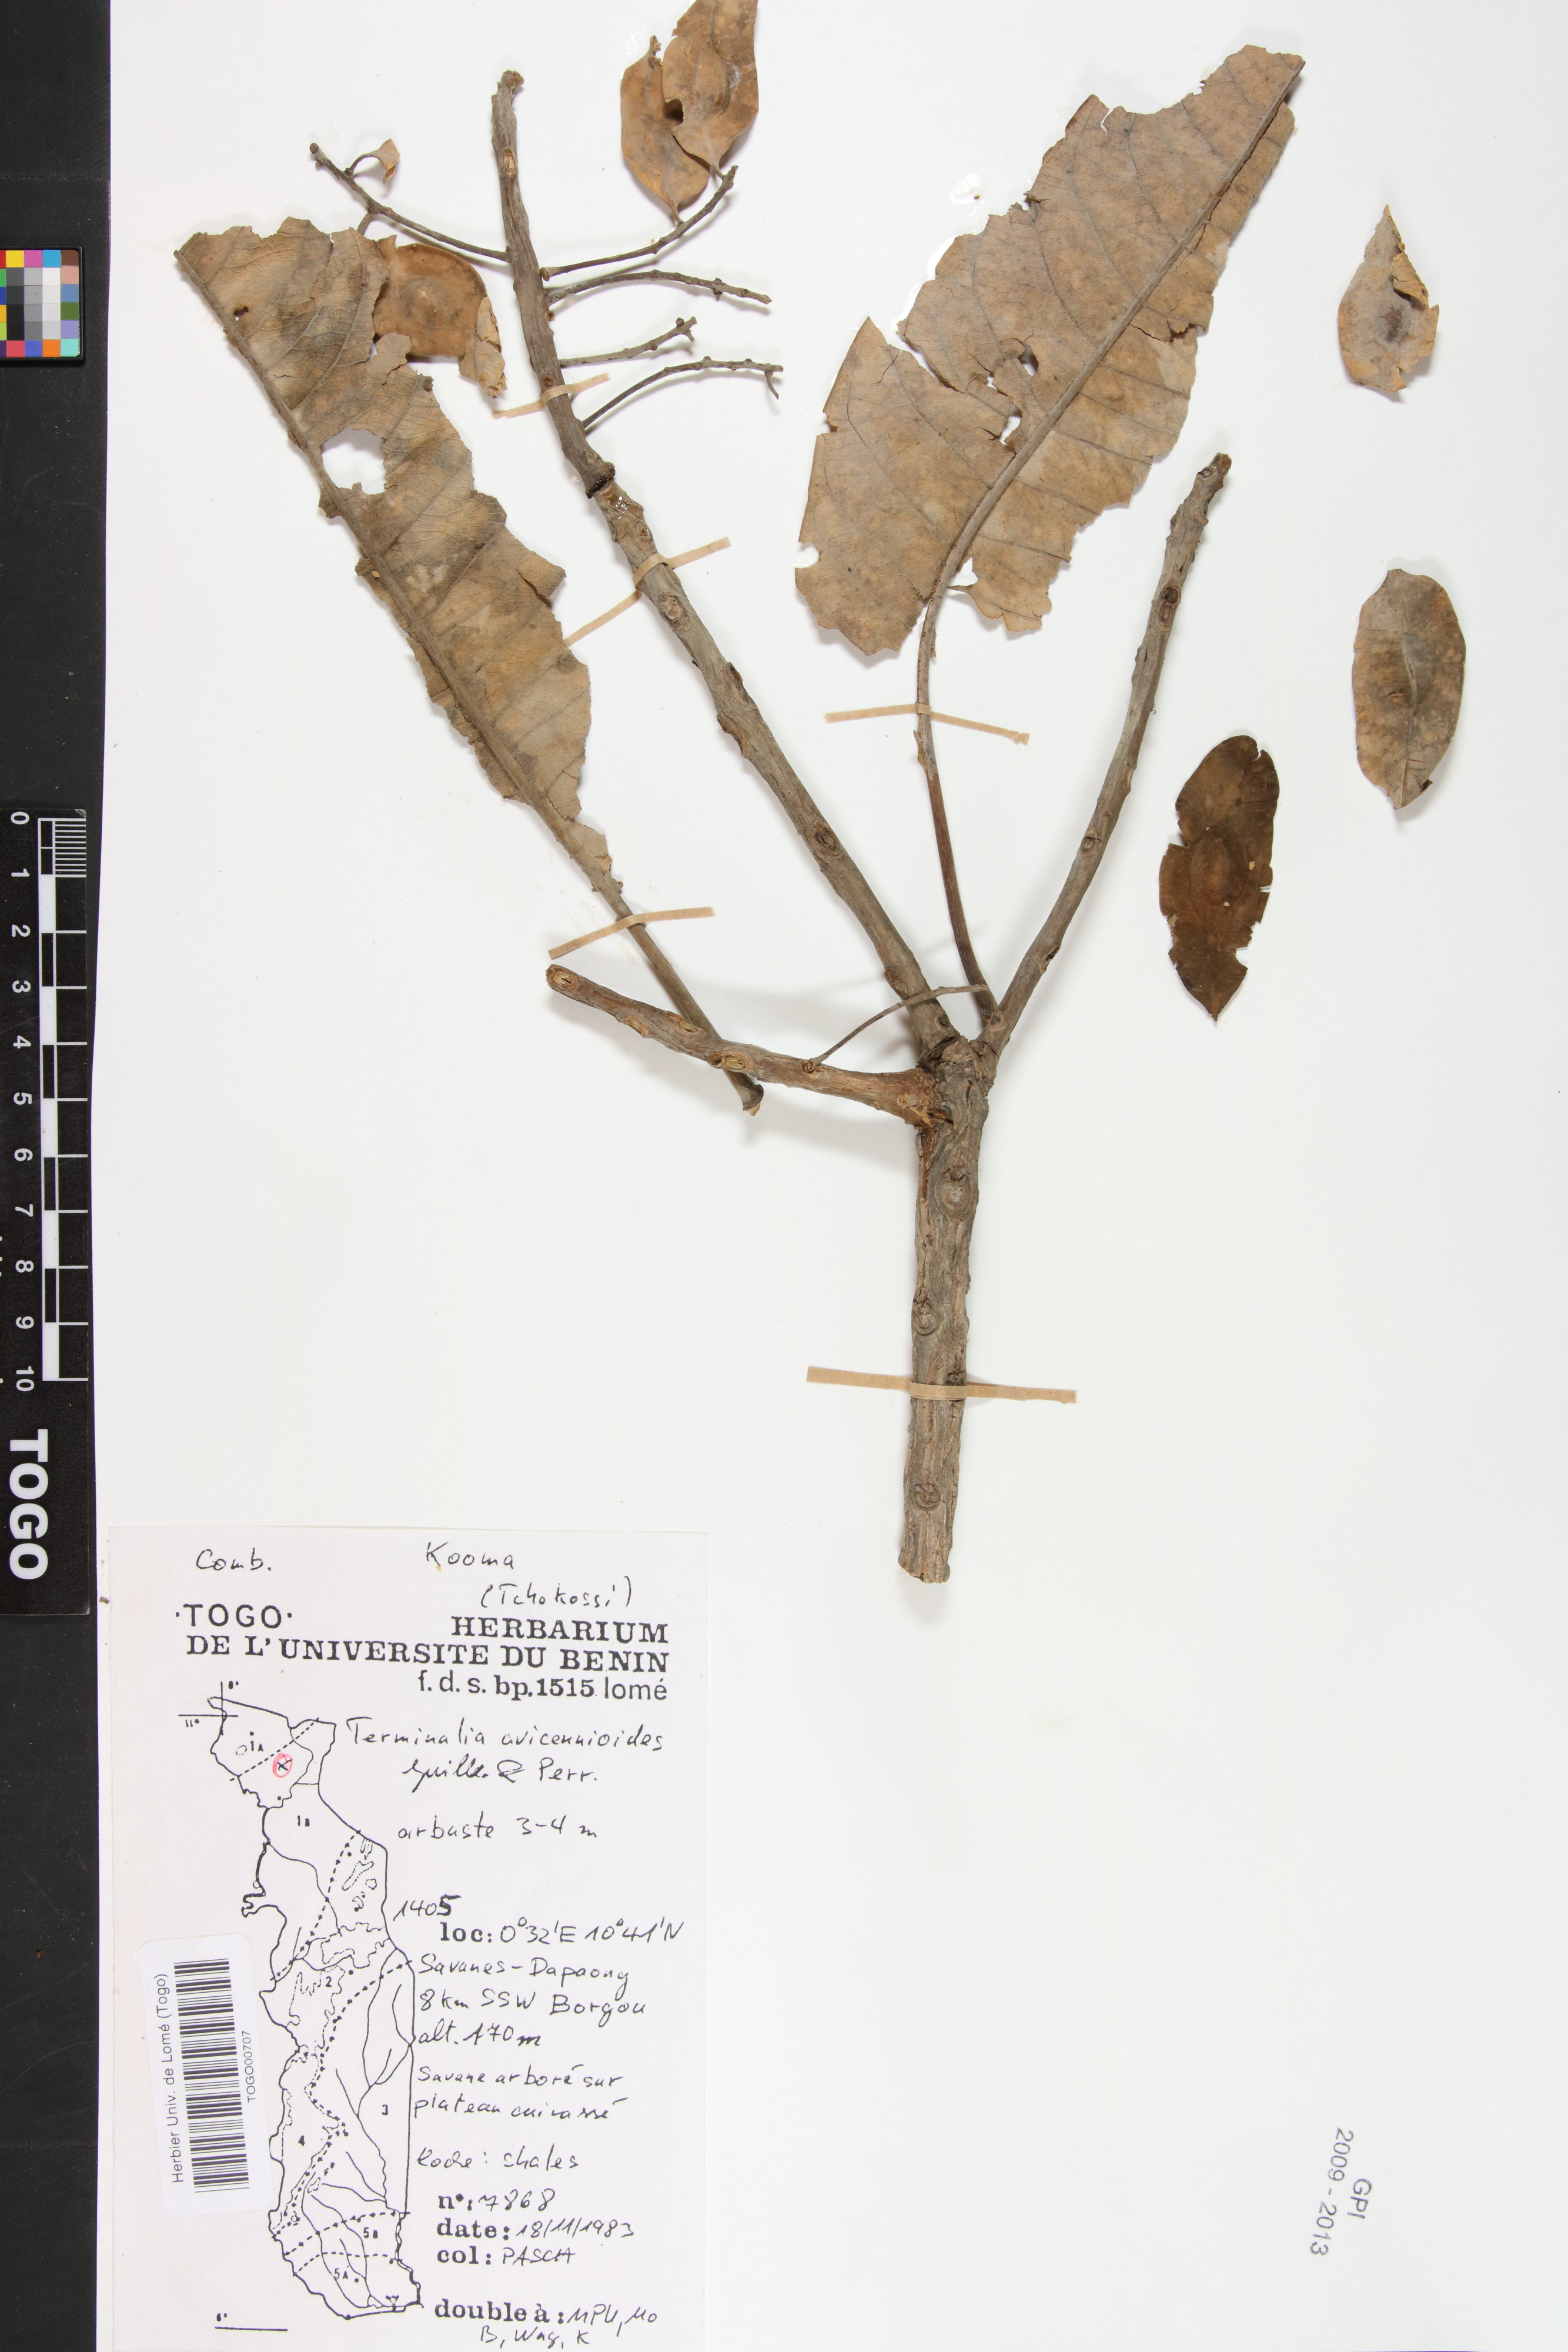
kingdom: Plantae
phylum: Tracheophyta
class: Magnoliopsida
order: Myrtales
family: Combretaceae
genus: Terminalia
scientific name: Terminalia avicennioides
